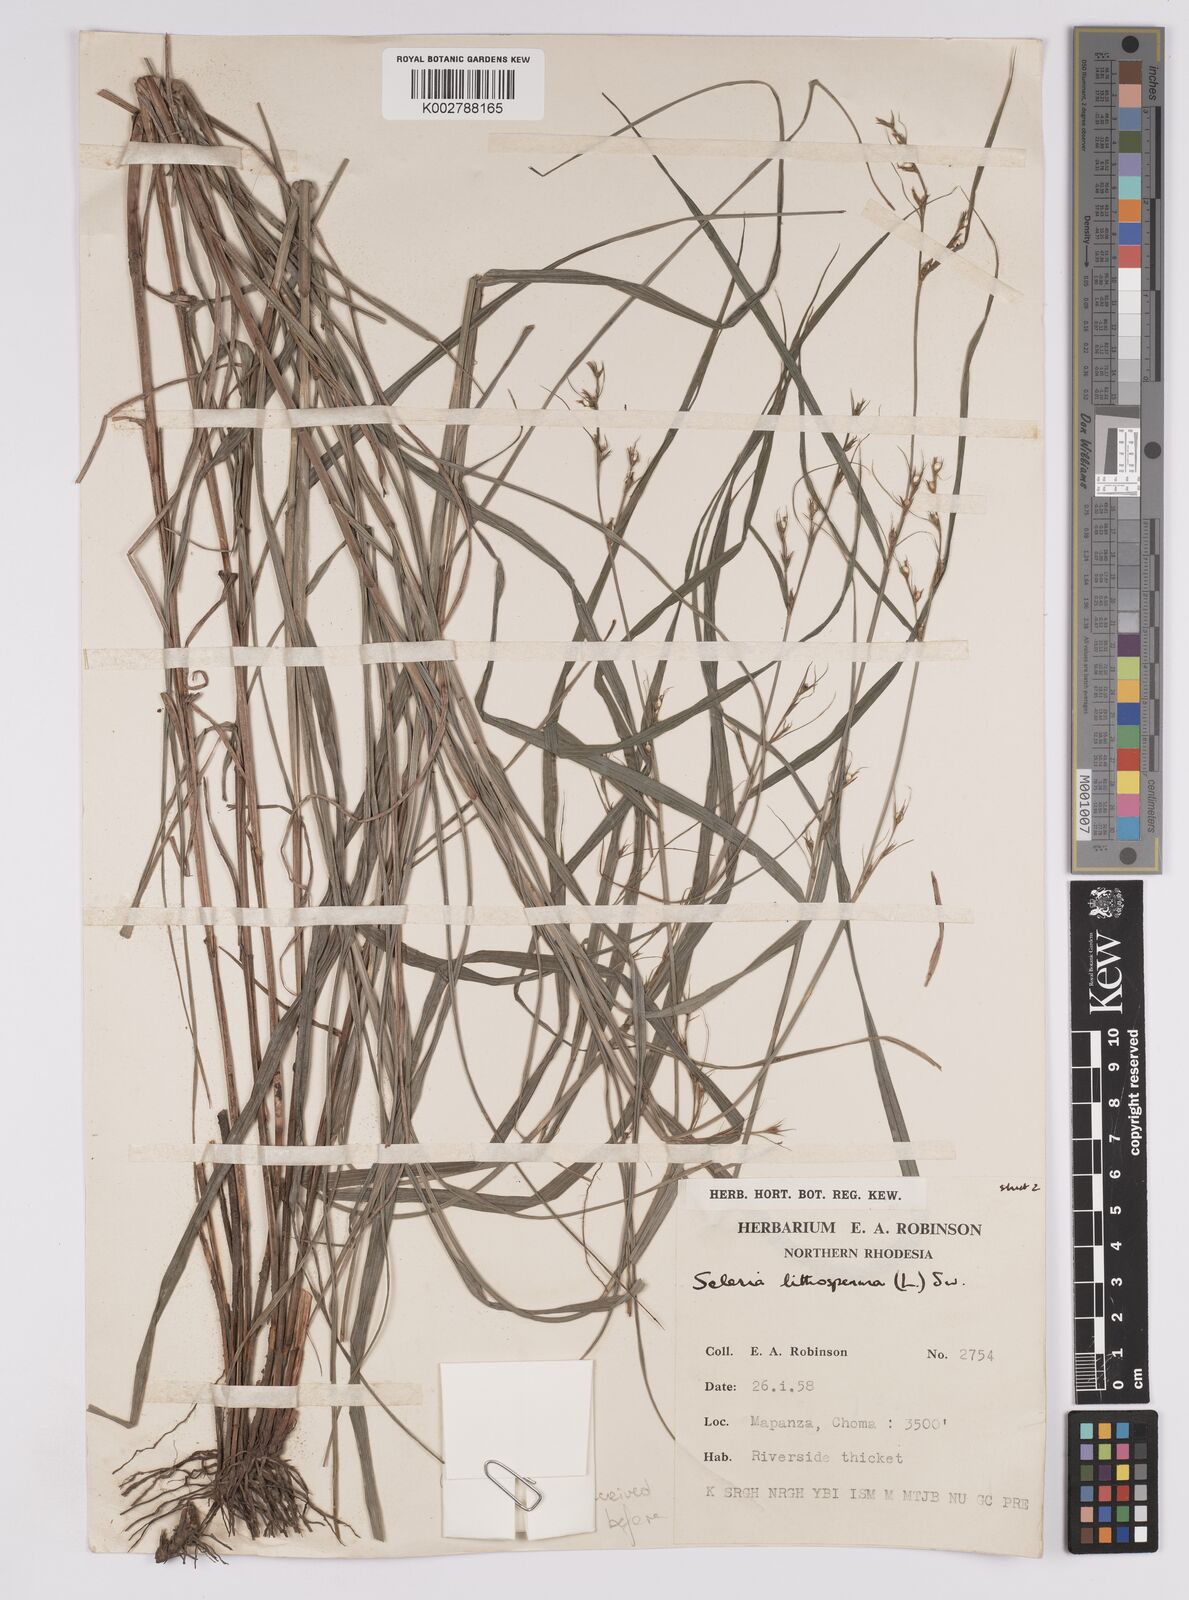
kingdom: Plantae
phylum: Tracheophyta
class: Liliopsida
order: Poales
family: Cyperaceae
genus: Scleria
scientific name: Scleria lithosperma
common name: Florida keys nut-rush
